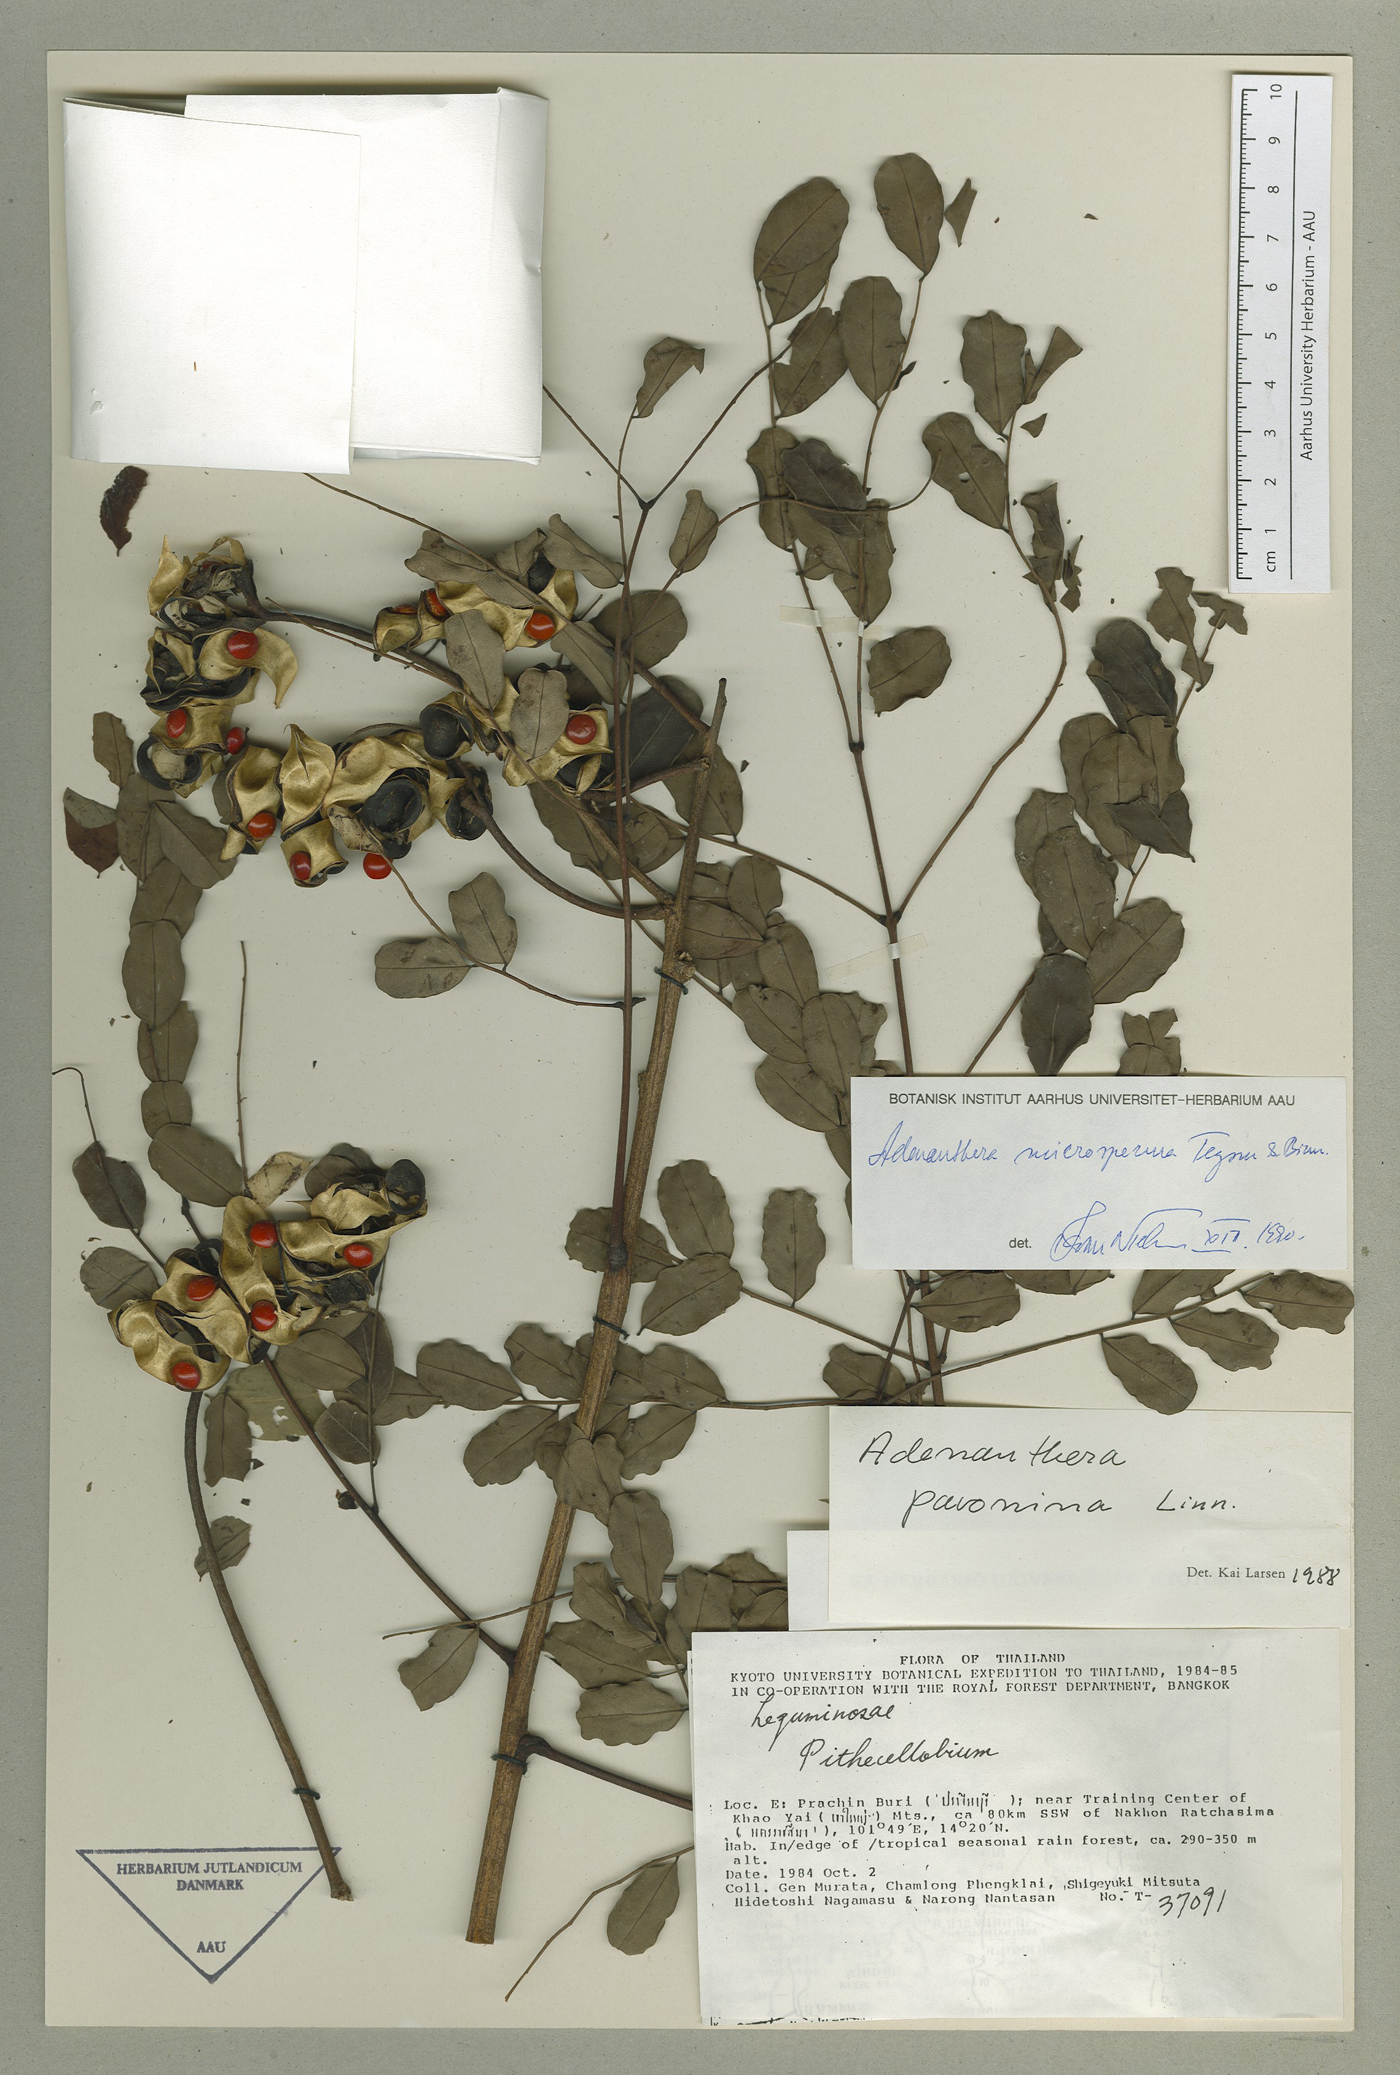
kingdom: Plantae
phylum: Tracheophyta
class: Magnoliopsida
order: Fabales
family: Fabaceae
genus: Adenanthera
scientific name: Adenanthera microsperma
